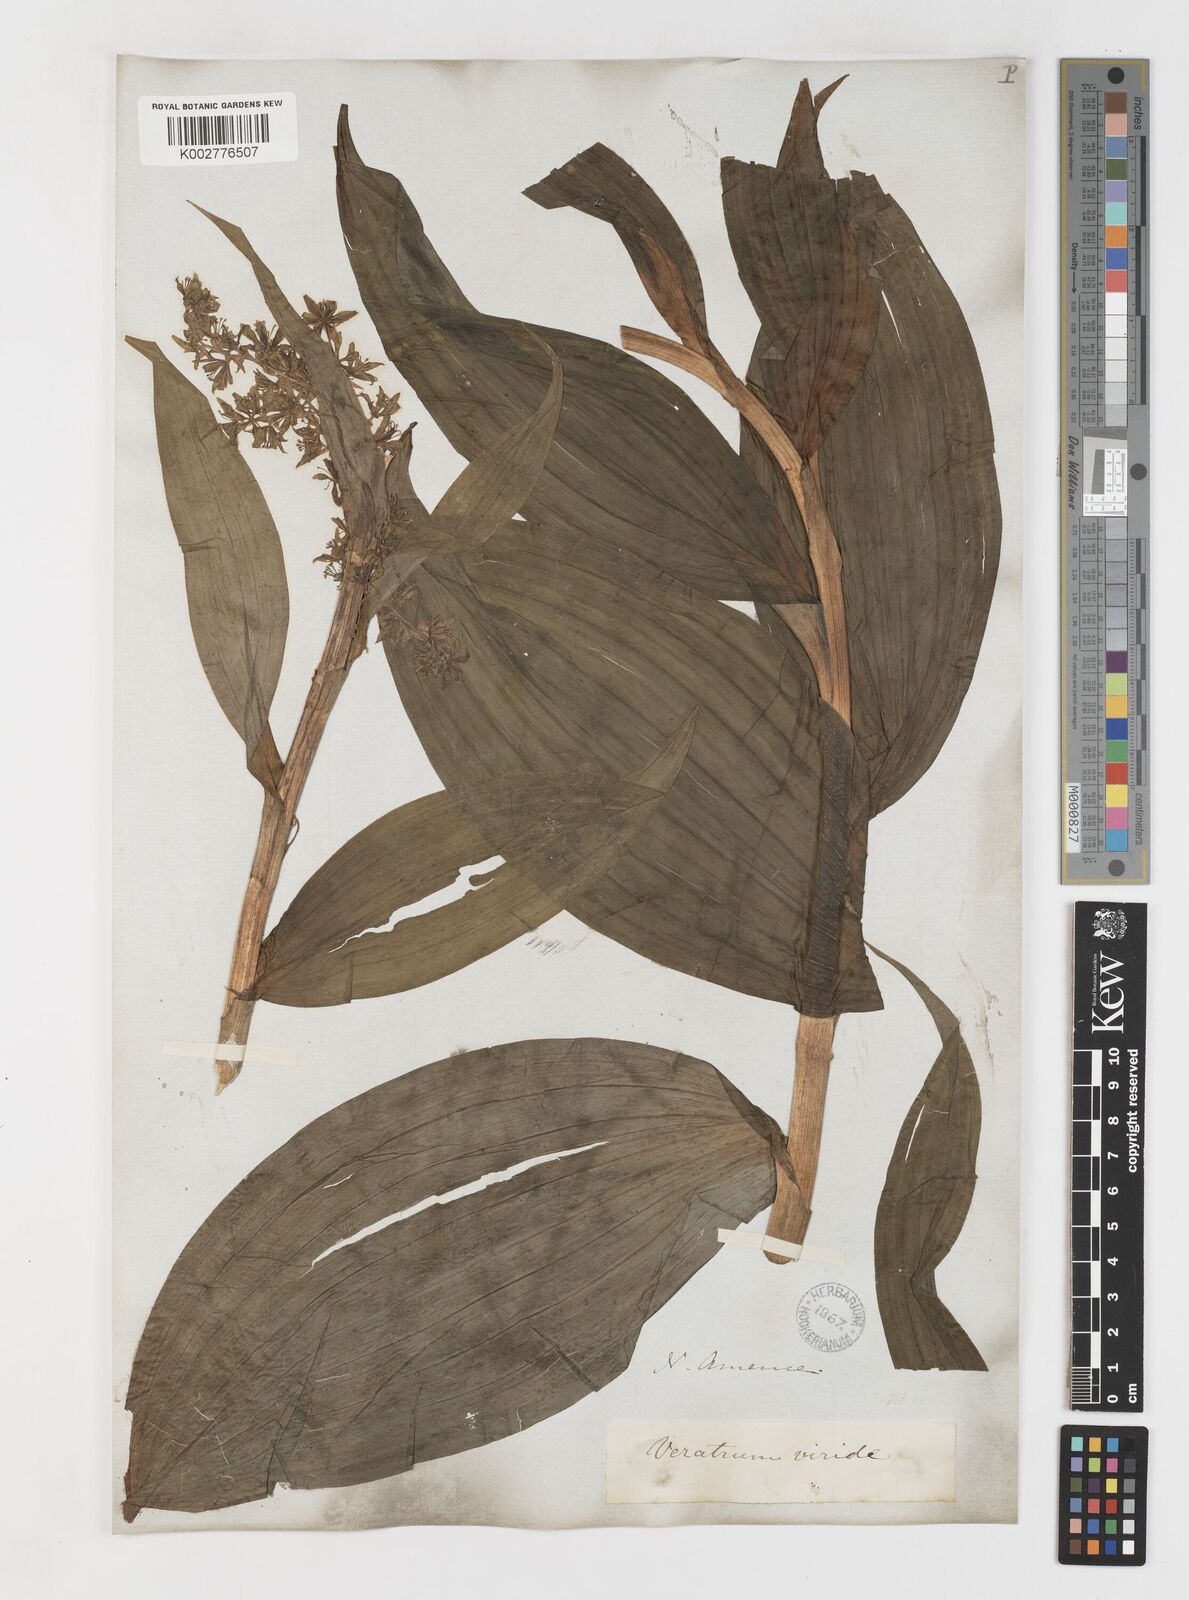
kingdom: Plantae
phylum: Tracheophyta
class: Liliopsida
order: Liliales
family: Melanthiaceae
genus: Veratrum
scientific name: Veratrum viride
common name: American false hellebore
